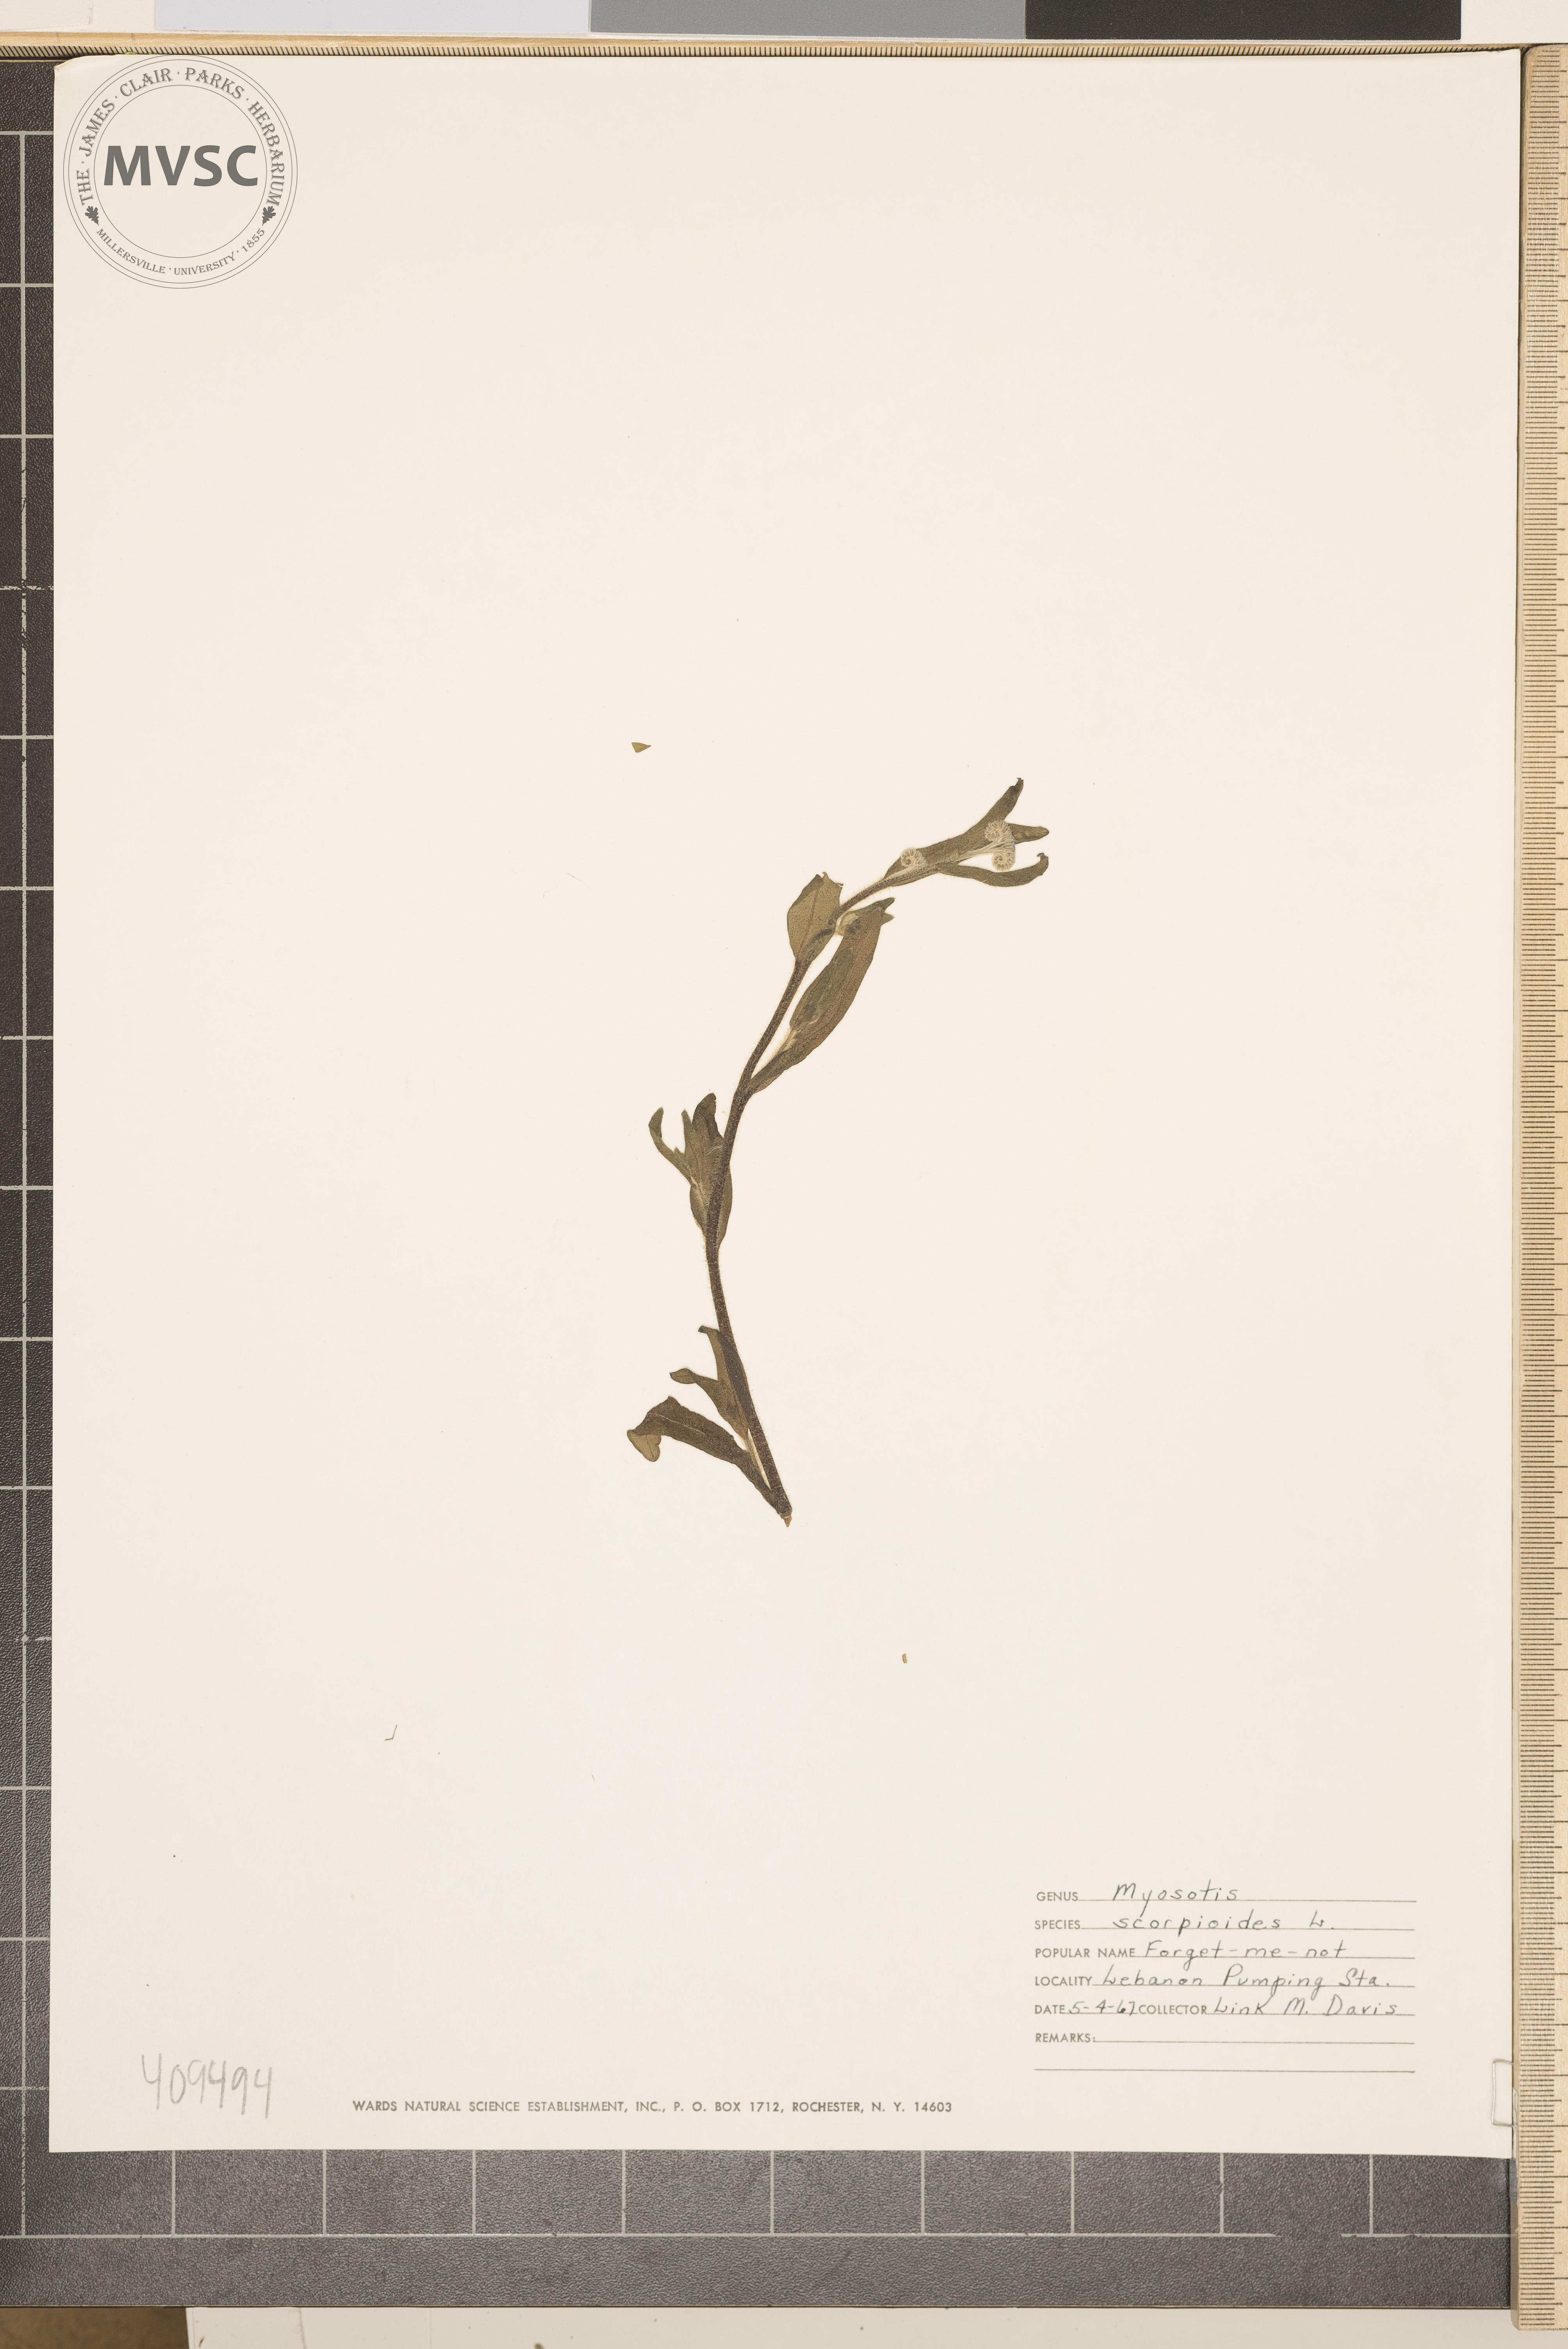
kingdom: Plantae
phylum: Tracheophyta
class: Magnoliopsida
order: Boraginales
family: Boraginaceae
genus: Myosotis
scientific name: Myosotis scorpioides
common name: Water forget-me-not
